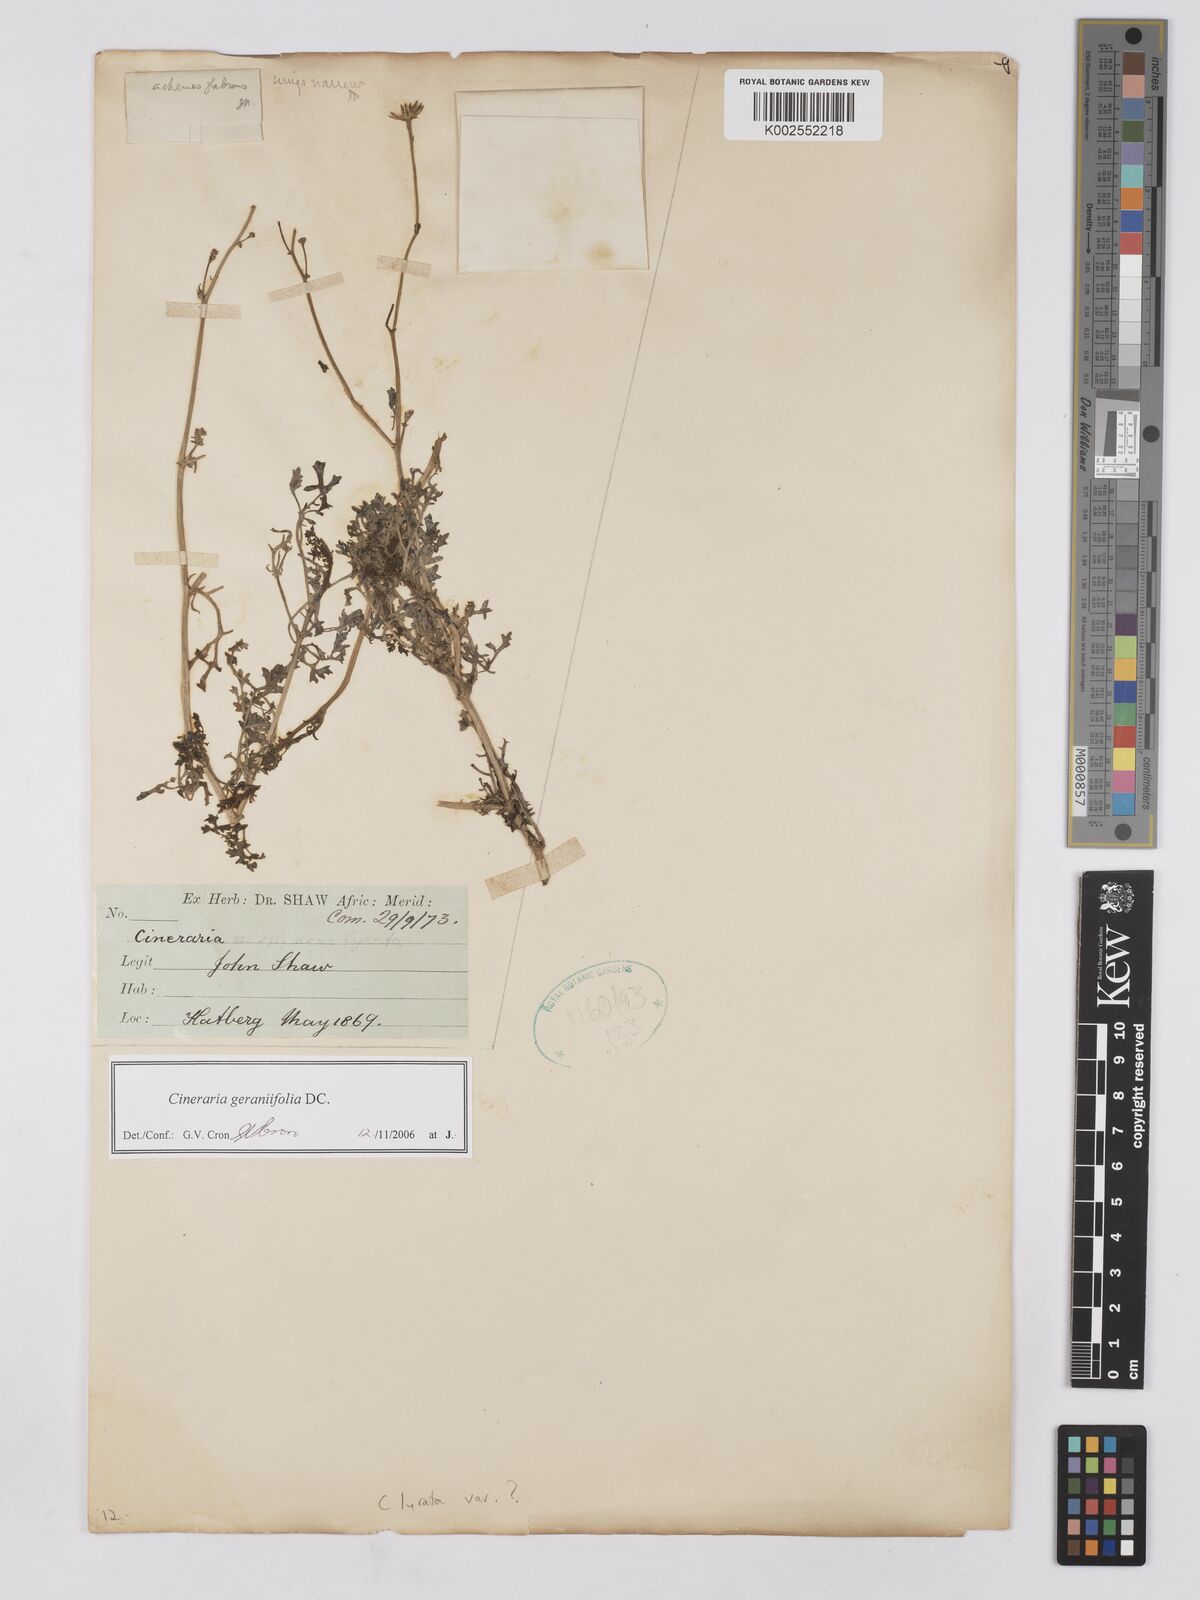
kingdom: Plantae
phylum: Tracheophyta
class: Magnoliopsida
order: Asterales
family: Asteraceae
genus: Cineraria
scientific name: Cineraria geraniifolia
